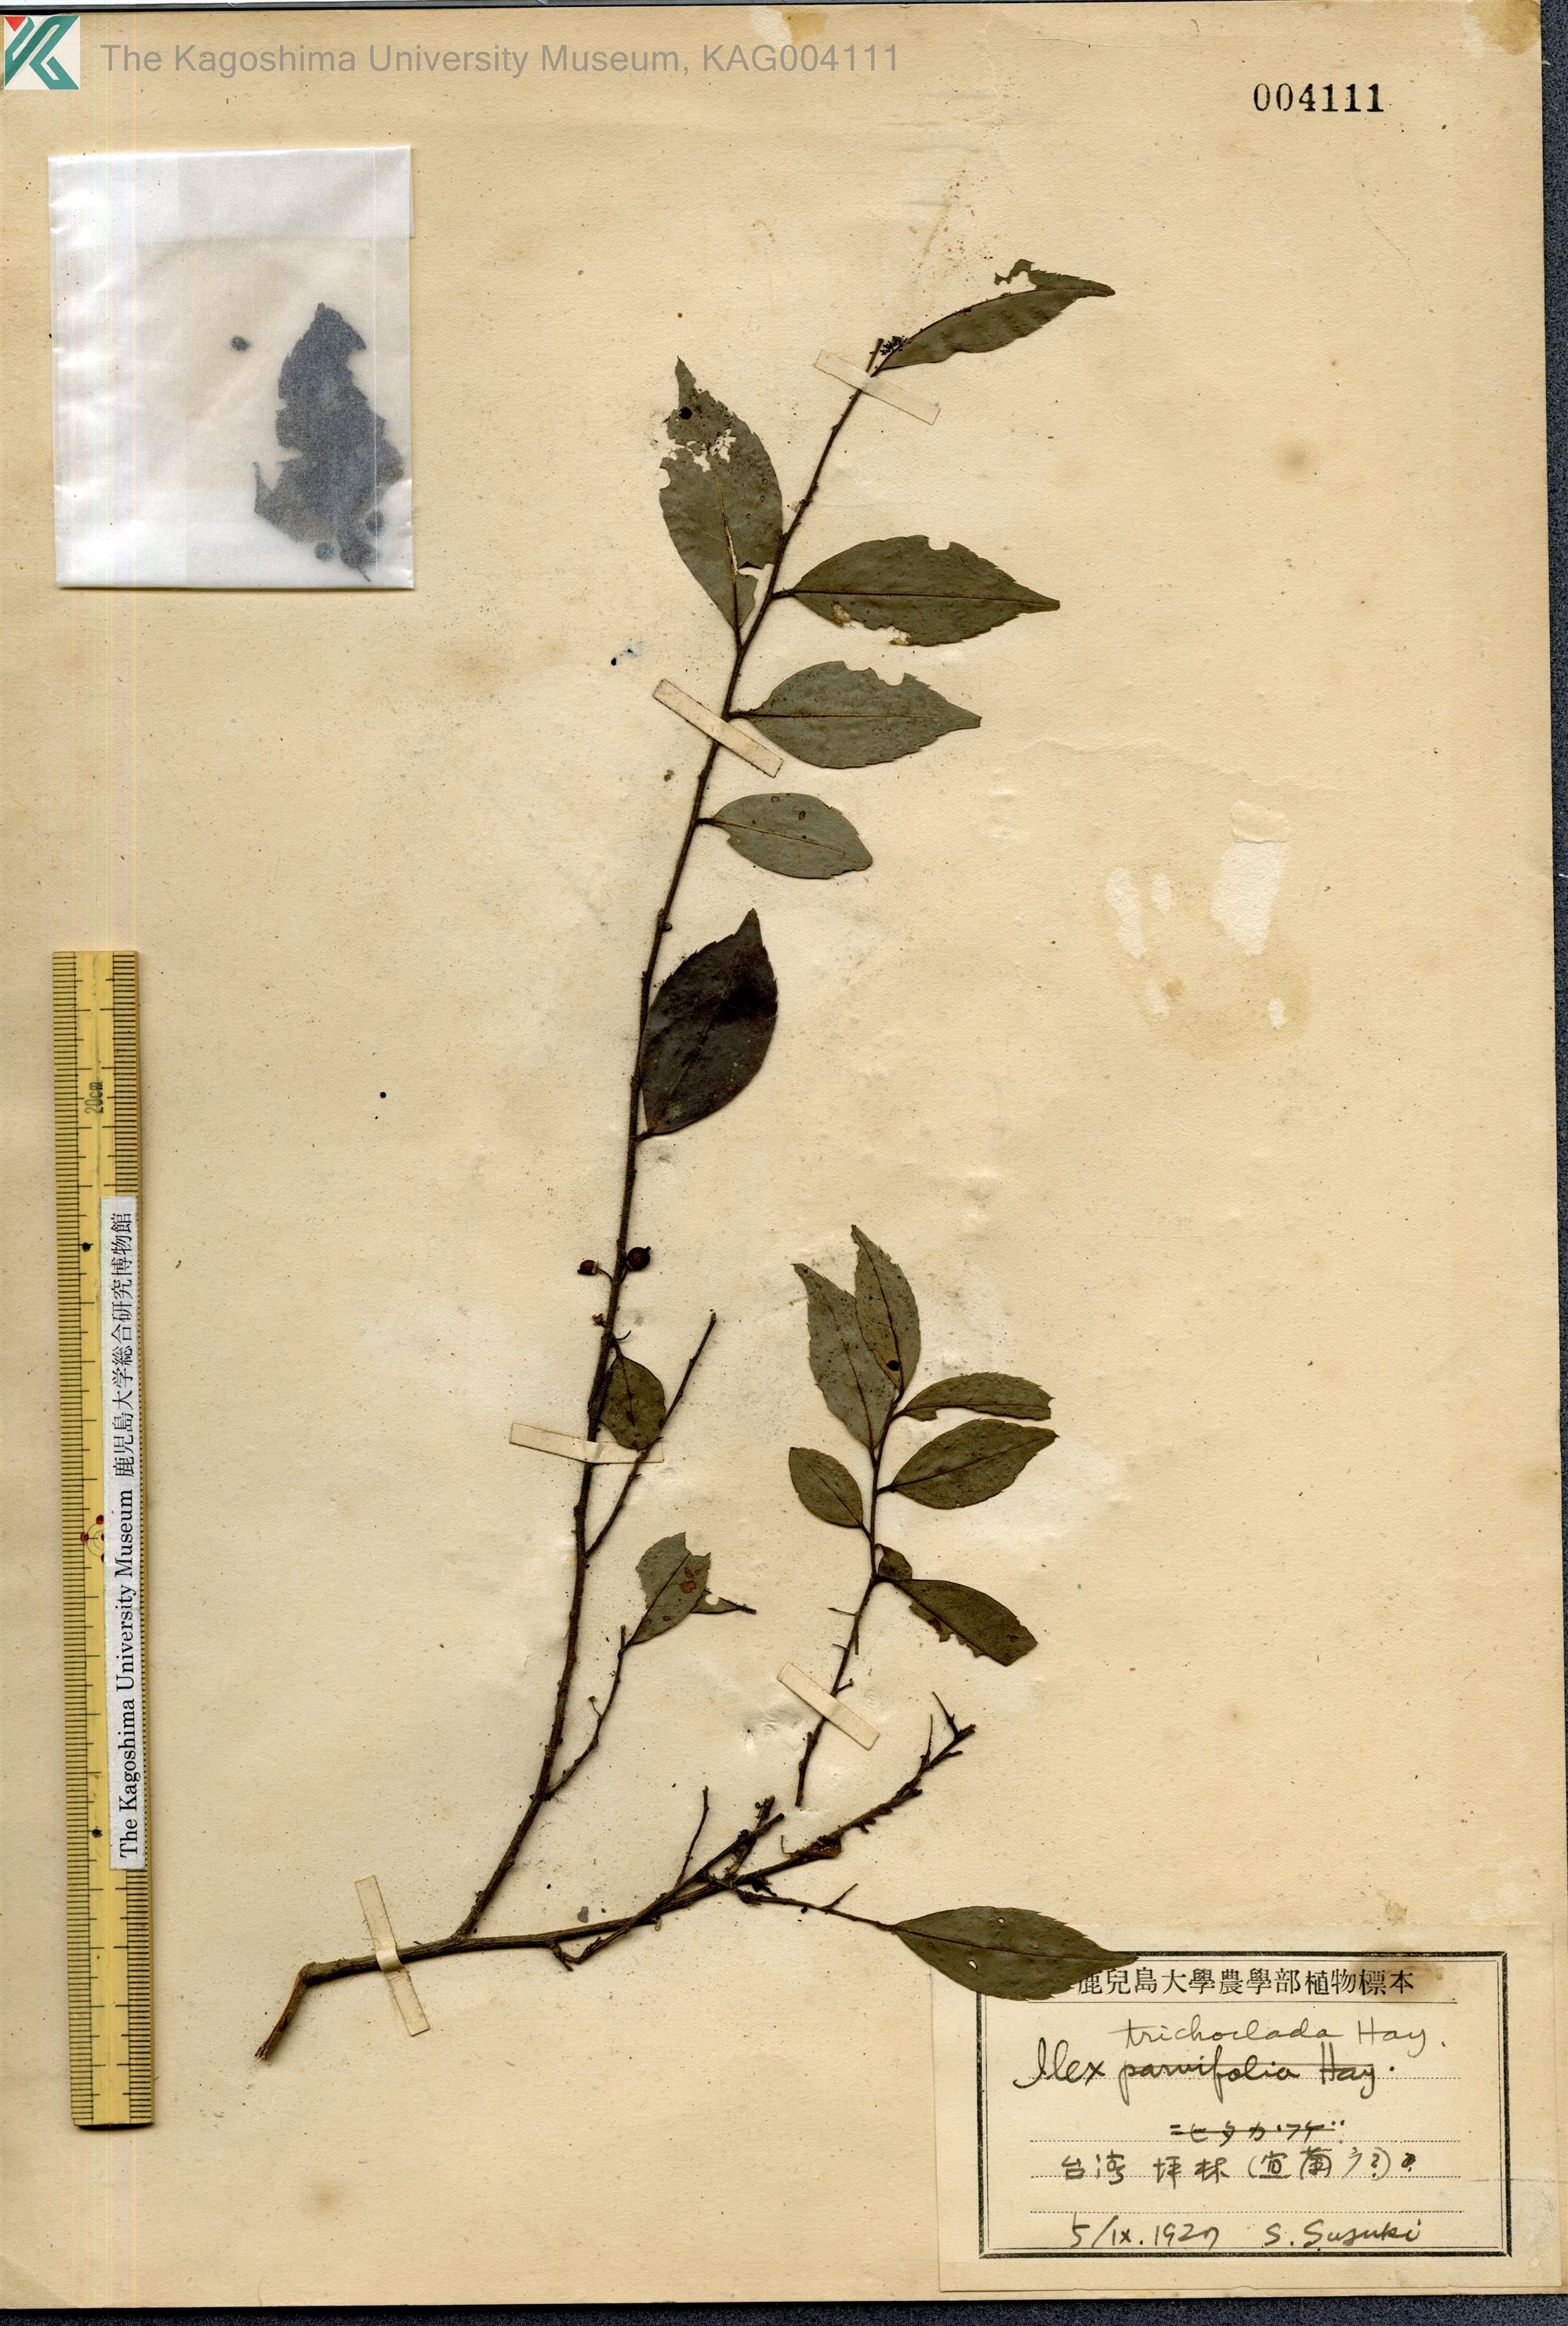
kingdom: Plantae
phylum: Tracheophyta
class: Magnoliopsida
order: Aquifoliales
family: Aquifoliaceae
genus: Ilex
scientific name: Ilex trichoclada
